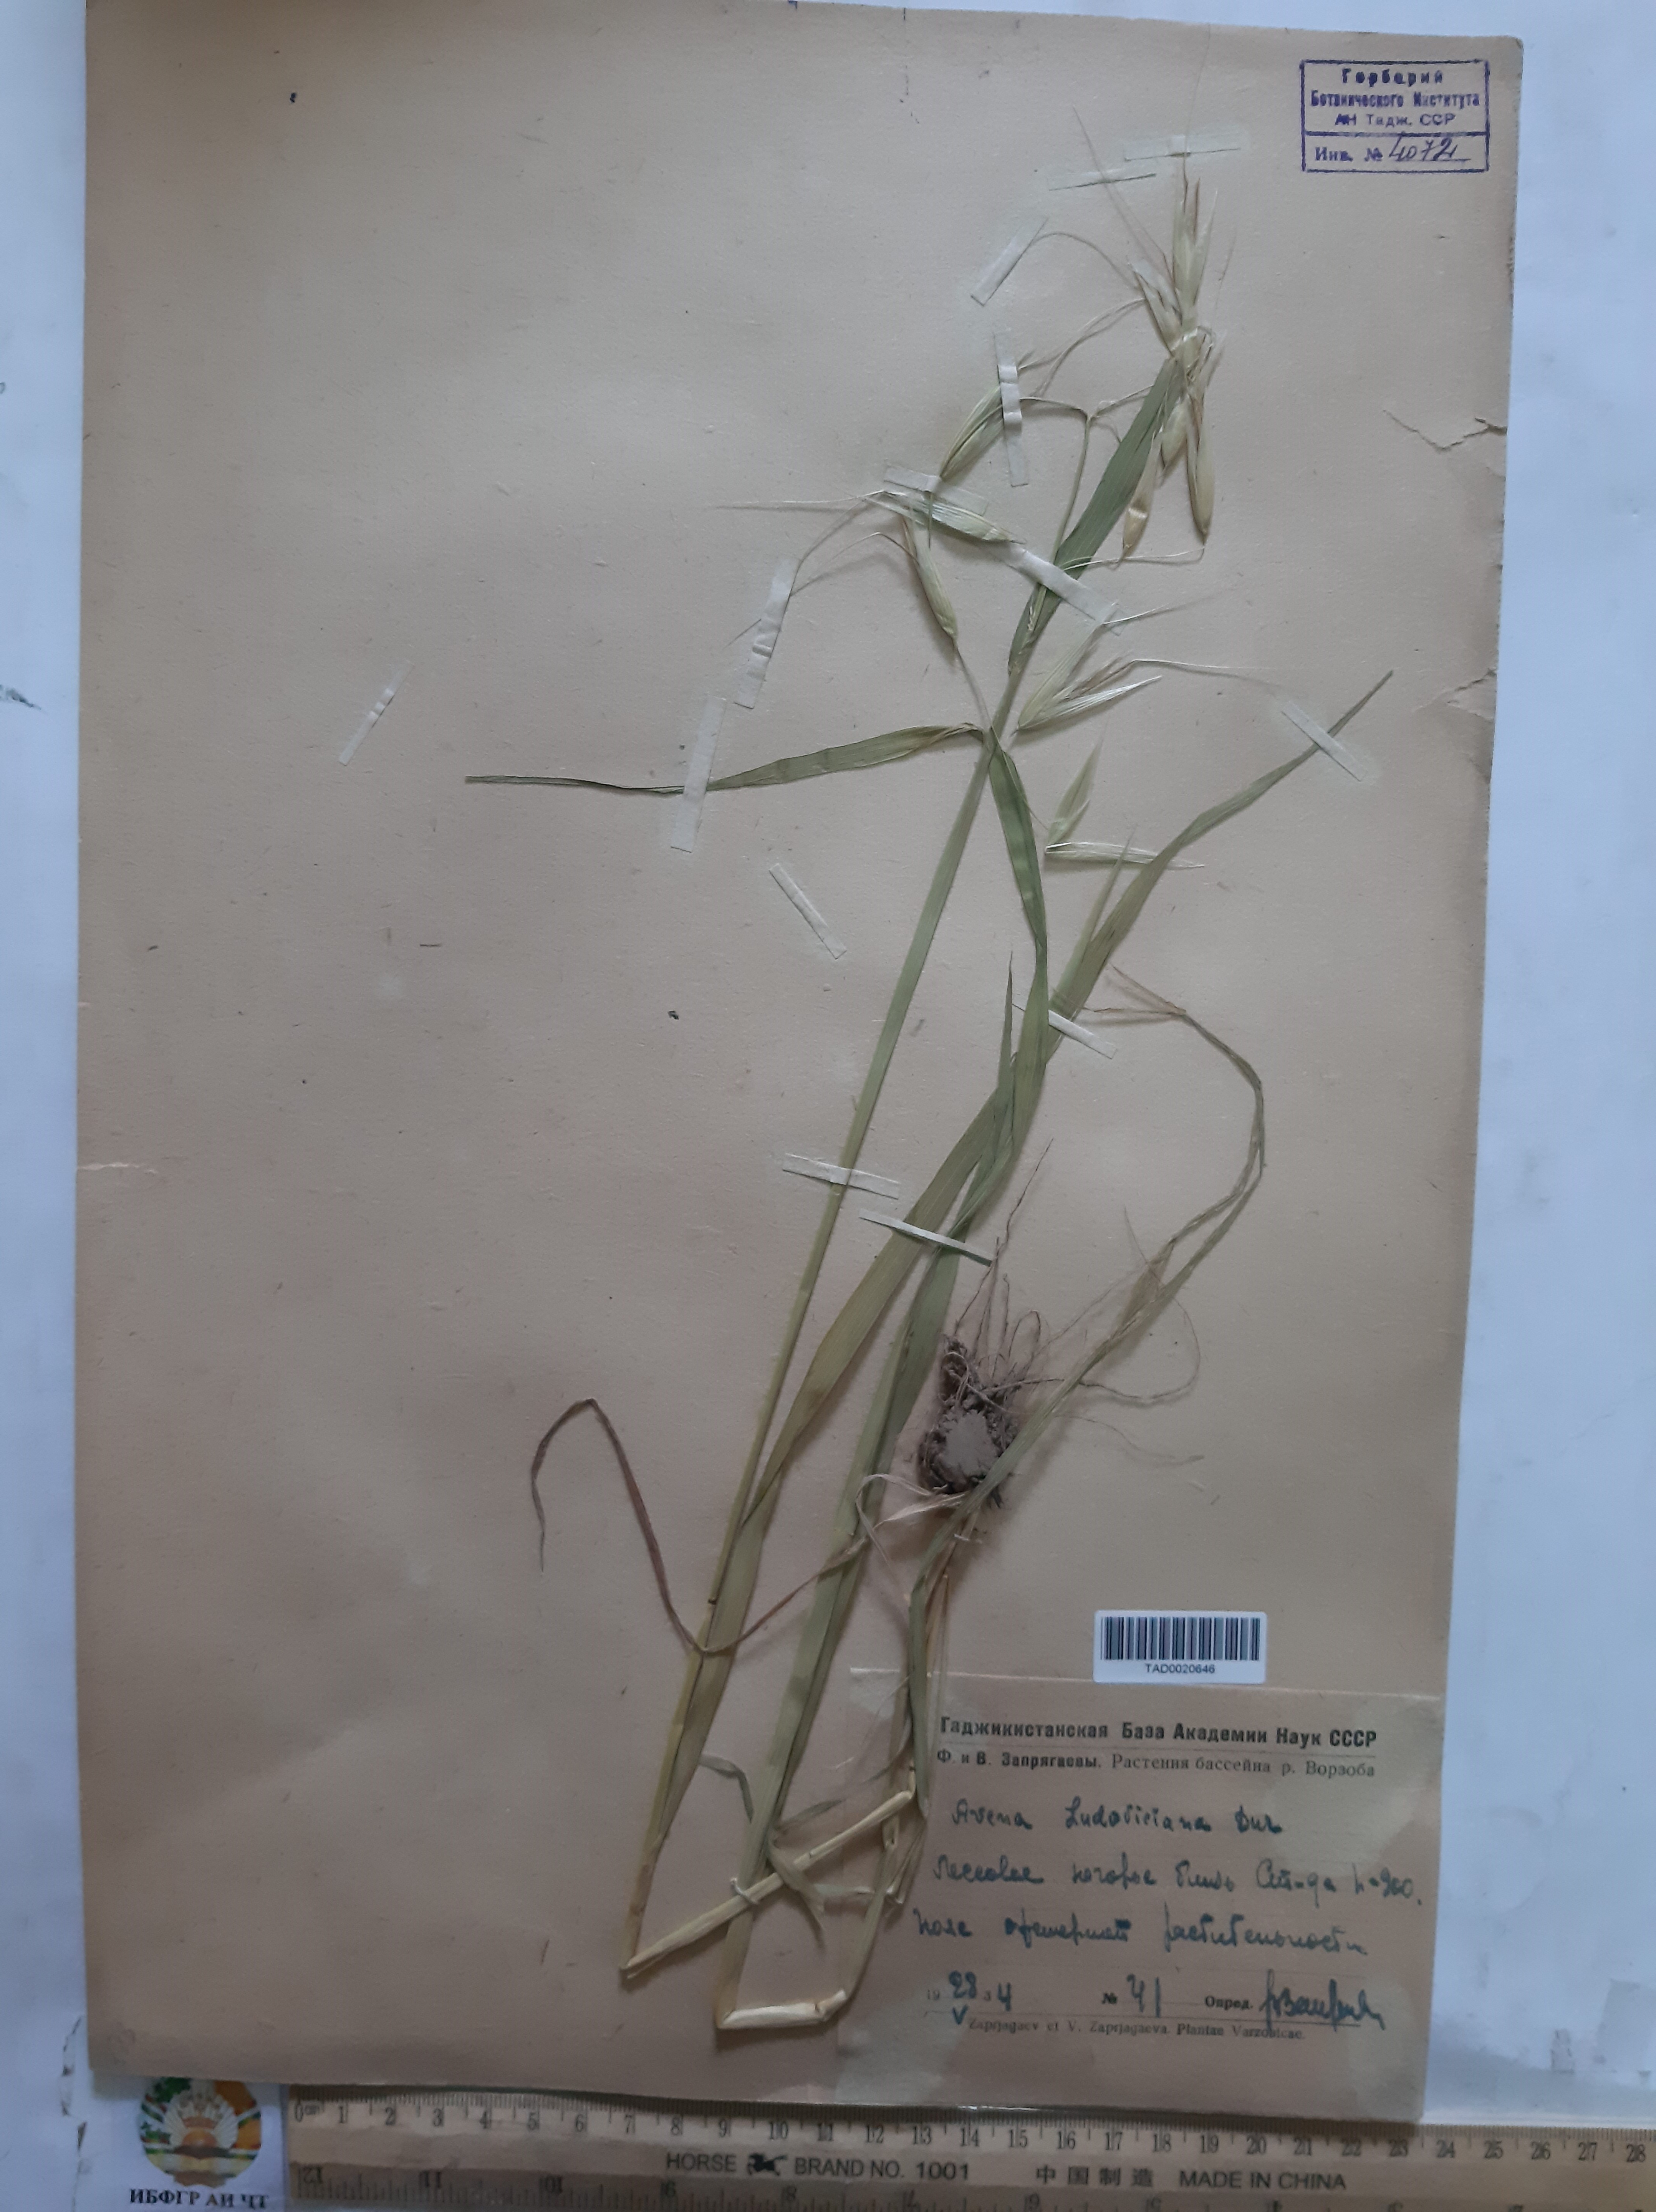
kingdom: Plantae
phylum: Tracheophyta
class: Liliopsida
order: Poales
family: Poaceae
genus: Avena
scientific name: Avena sterilis
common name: Animated oat
